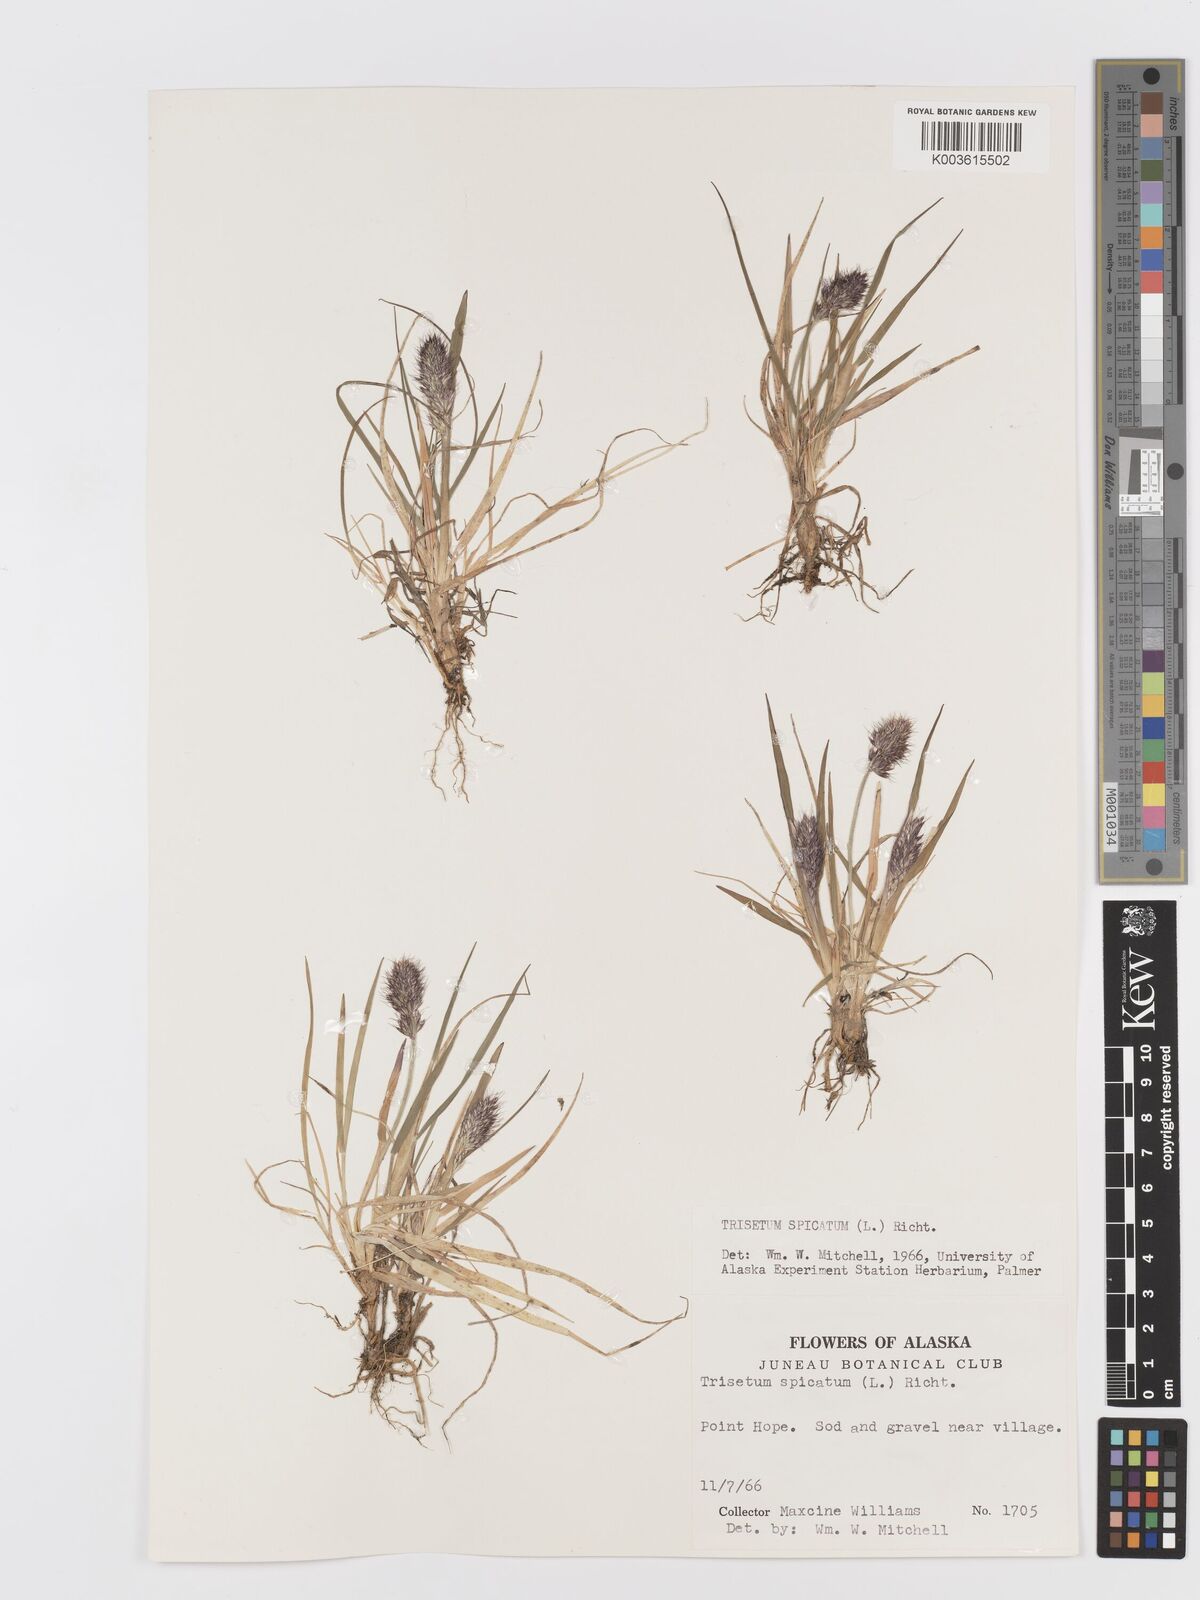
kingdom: Plantae
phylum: Tracheophyta
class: Liliopsida
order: Poales
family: Poaceae
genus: Koeleria
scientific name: Koeleria spicata
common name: Mountain trisetum
